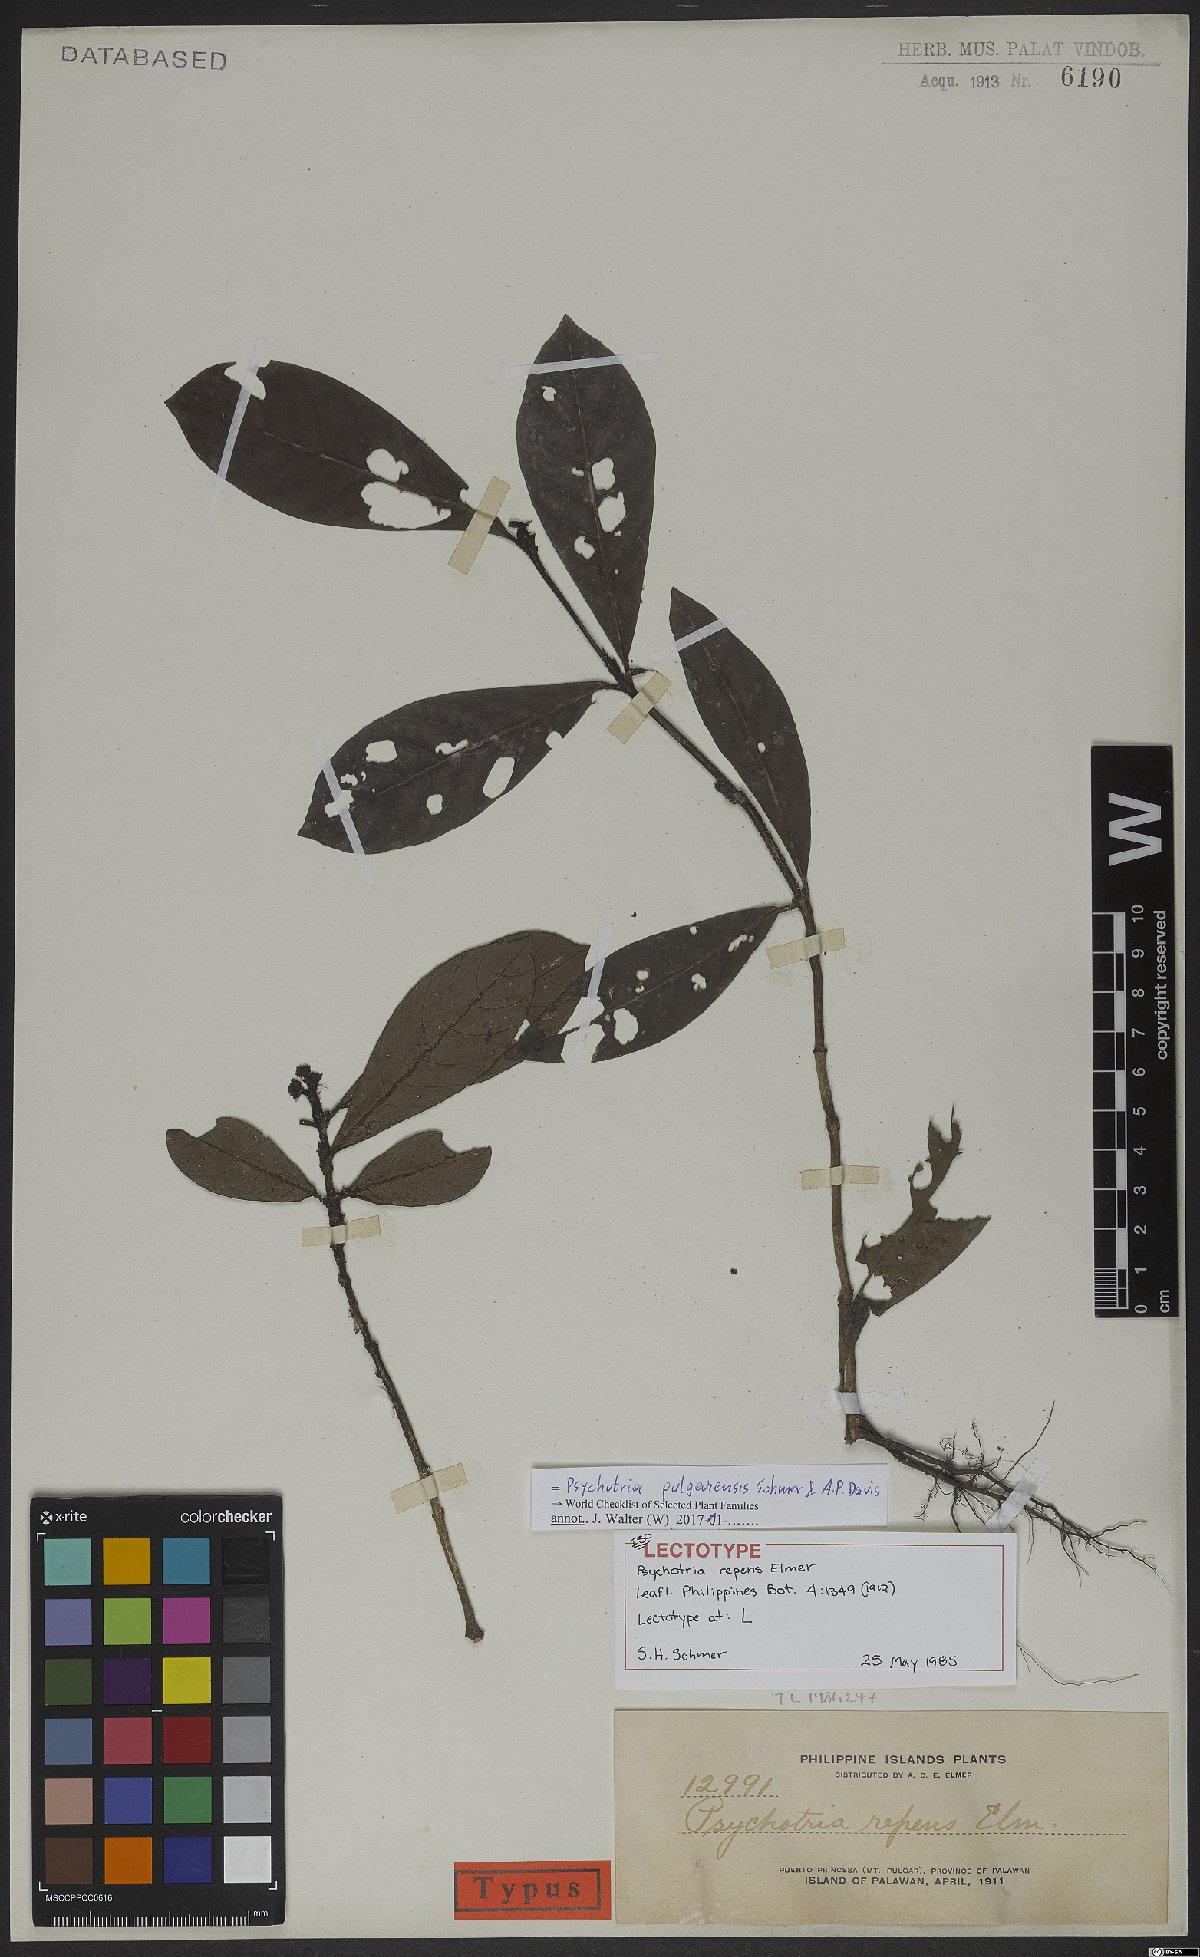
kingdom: Plantae
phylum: Tracheophyta
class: Magnoliopsida
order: Gentianales
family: Rubiaceae
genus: Psychotria
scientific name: Psychotria pulgarensis
